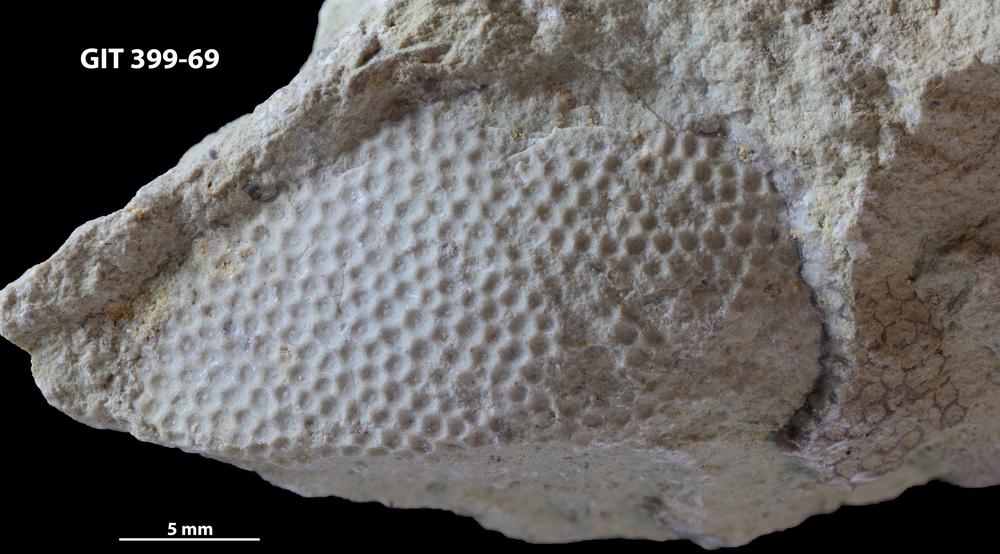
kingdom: Plantae
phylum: Chlorophyta
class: Ulvophyceae
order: Cyclocrinales
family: Cyclocrinaceae
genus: Mastopora
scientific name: Mastopora concava
